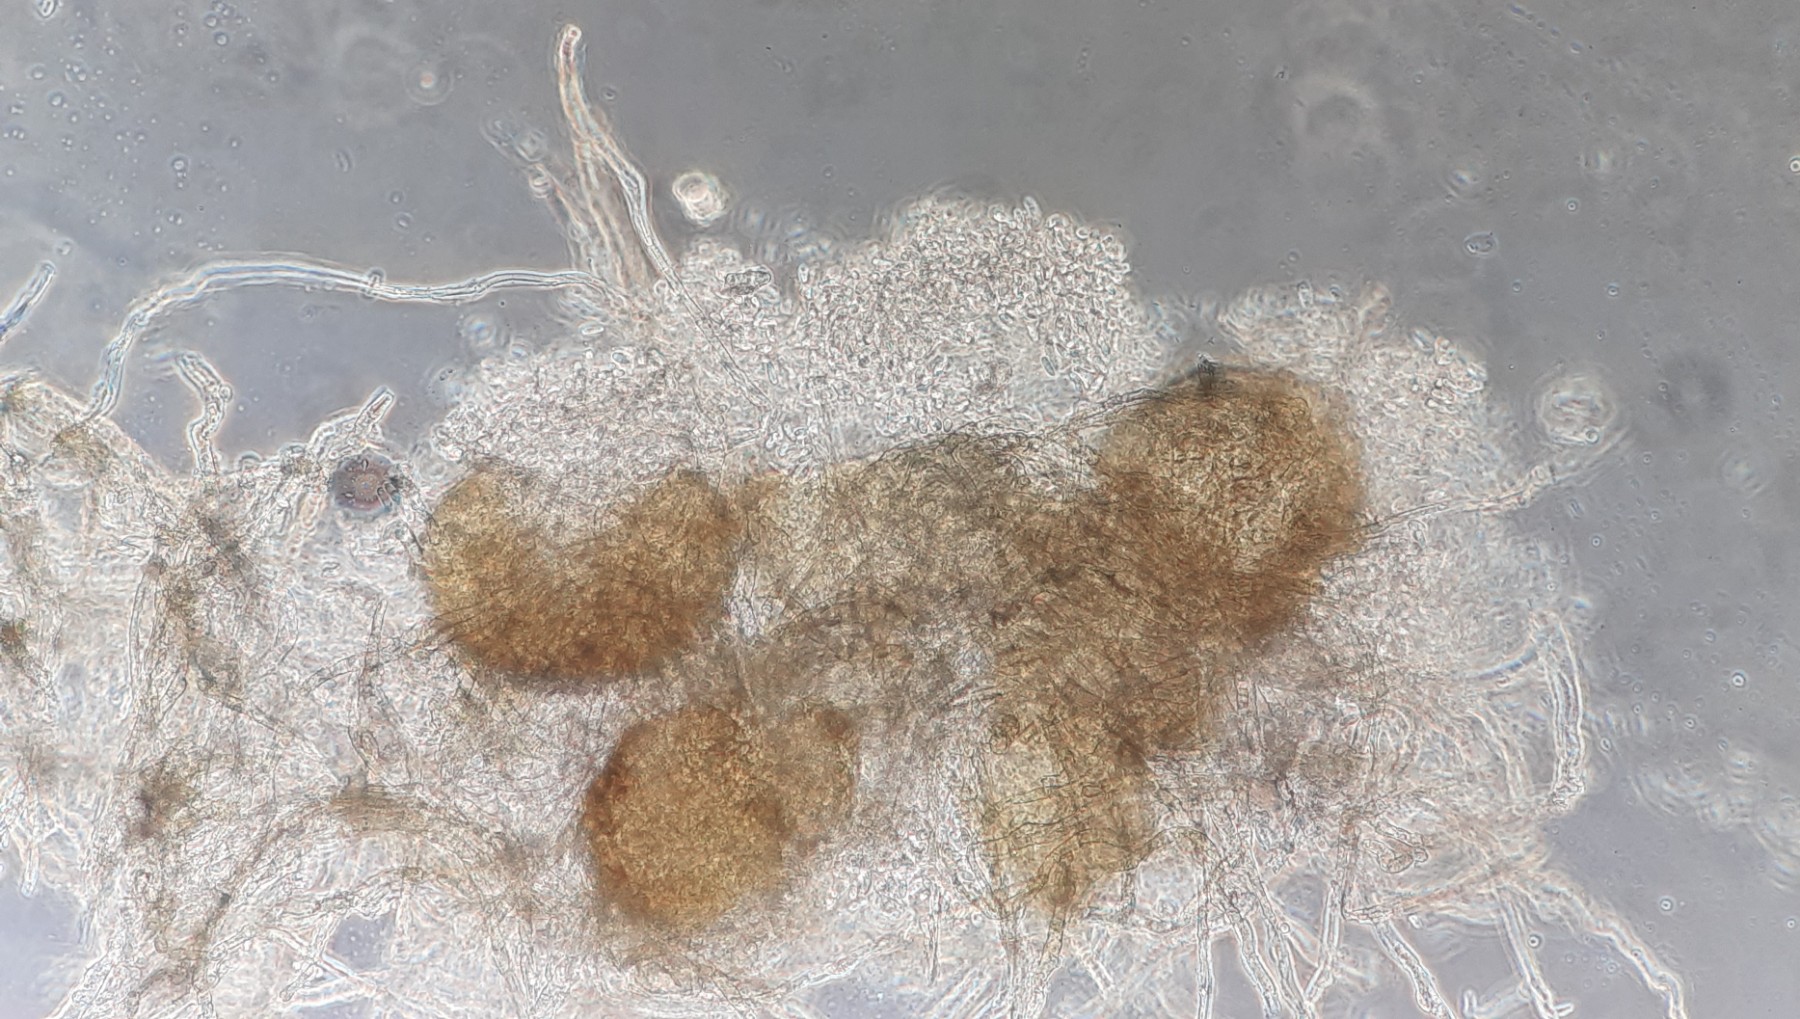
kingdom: Fungi
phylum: Ascomycota
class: Leotiomycetes
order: Helotiales
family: Erysiphaceae
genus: Golovinomyces
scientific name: Golovinomyces asperifoliorum
